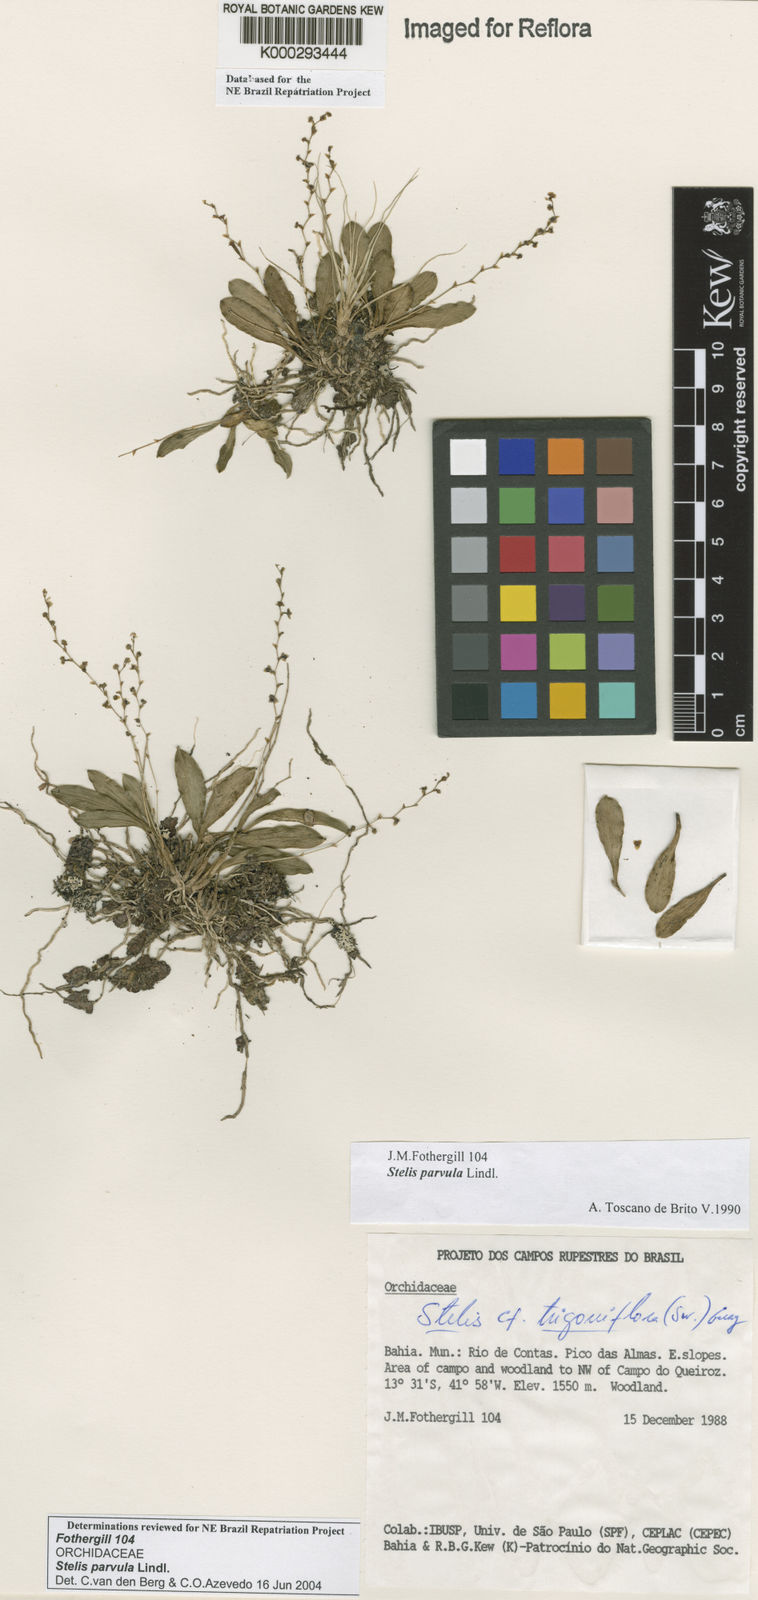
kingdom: Plantae
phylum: Tracheophyta
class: Liliopsida
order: Asparagales
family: Orchidaceae
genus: Stelis
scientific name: Stelis parvula
